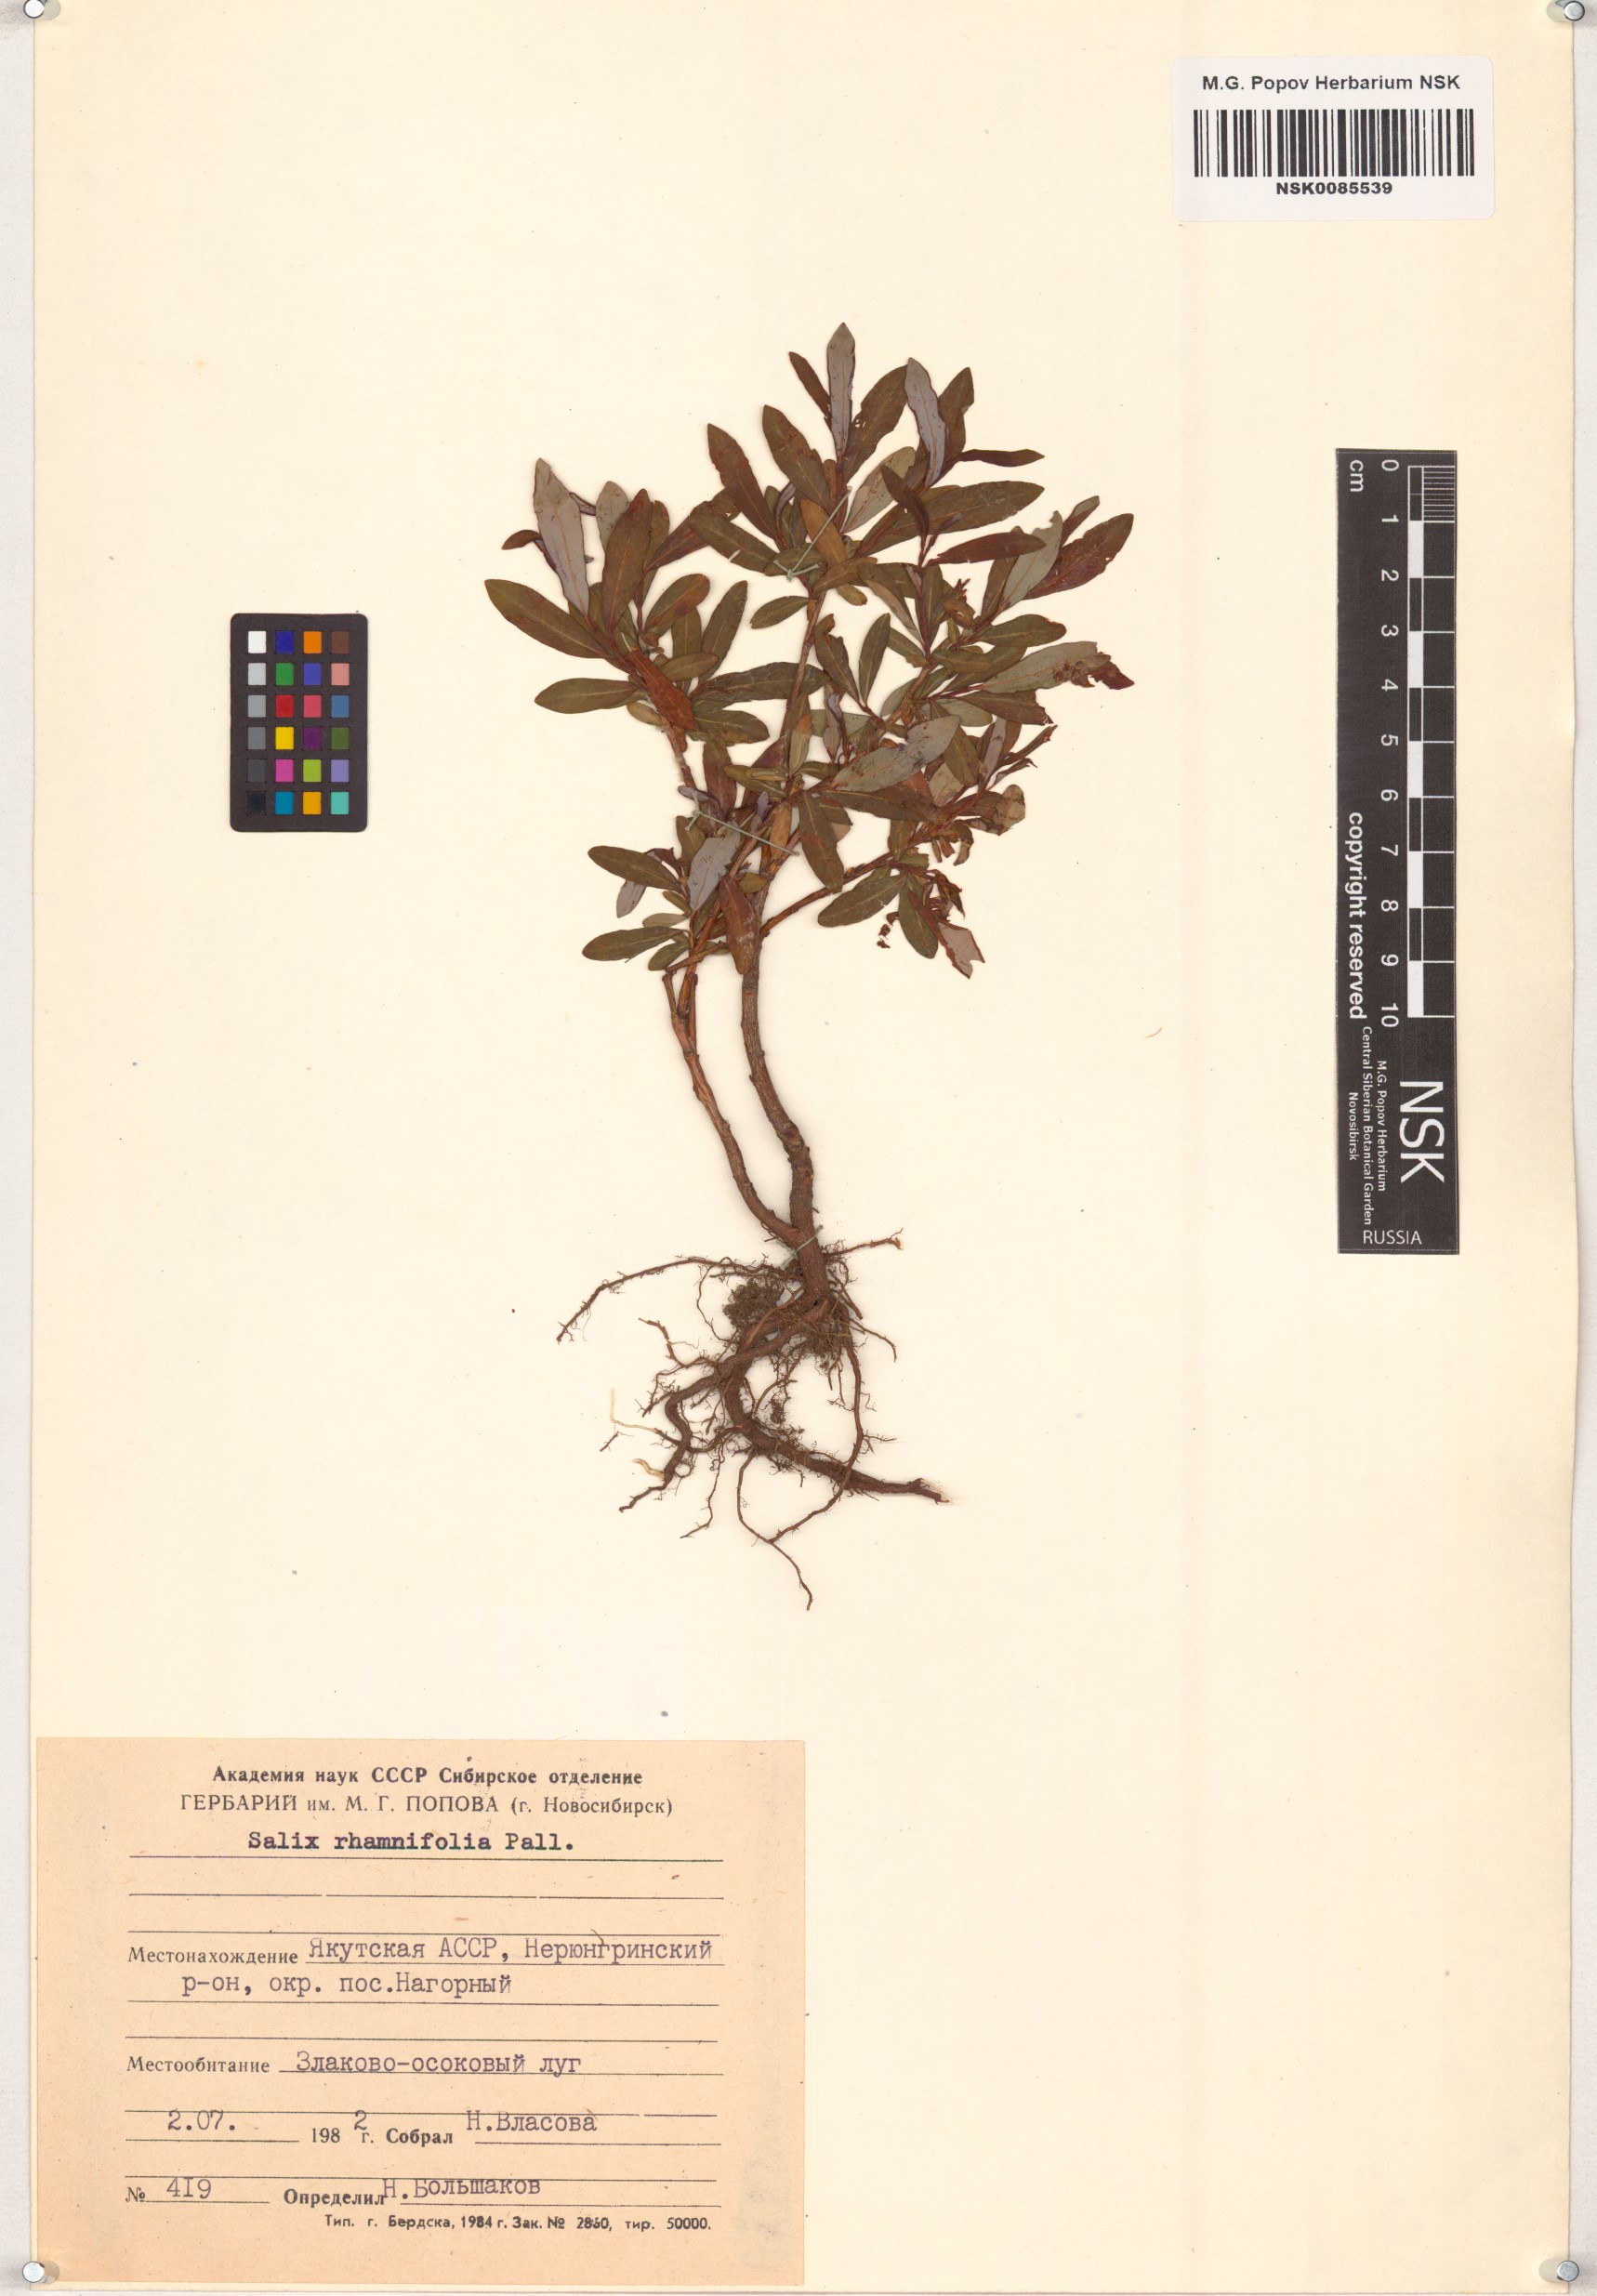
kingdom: Plantae
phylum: Tracheophyta
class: Magnoliopsida
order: Malpighiales
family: Salicaceae
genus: Salix
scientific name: Salix rhamnifolia
